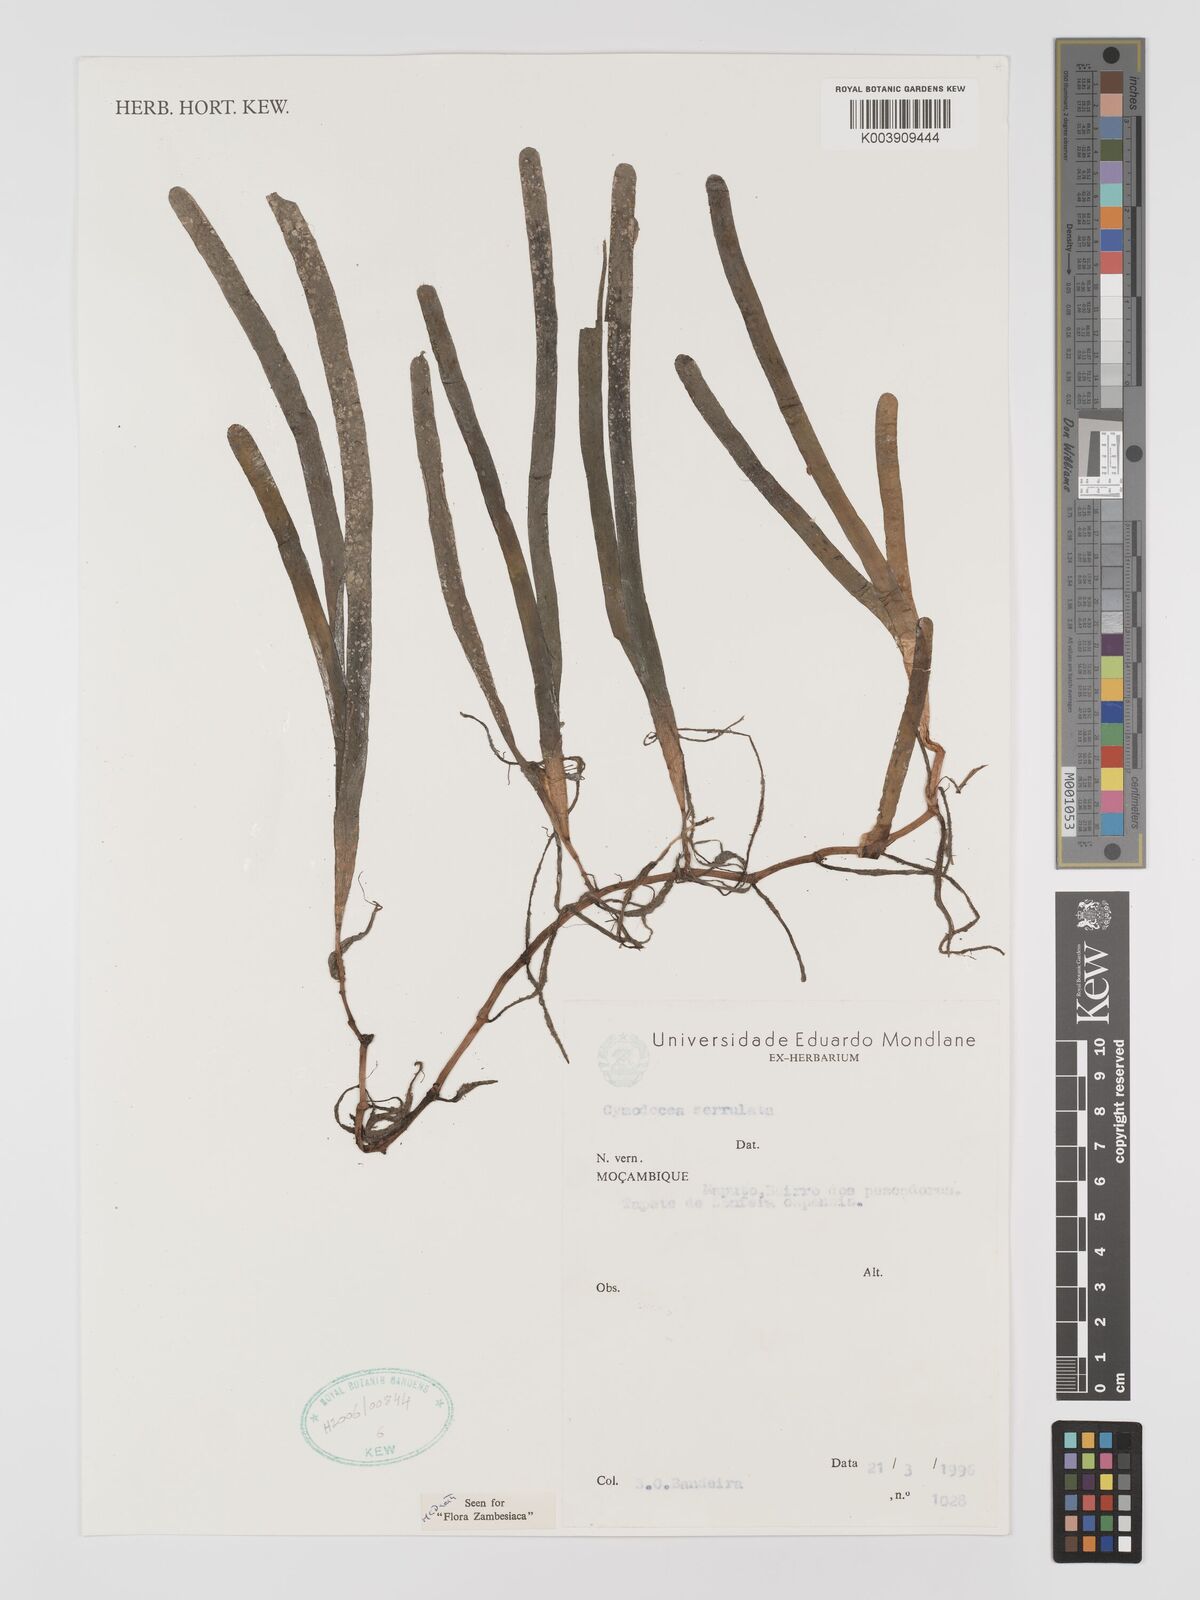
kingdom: Plantae
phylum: Tracheophyta
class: Liliopsida
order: Alismatales
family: Cymodoceaceae
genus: Oceana
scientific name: Oceana serrulata
